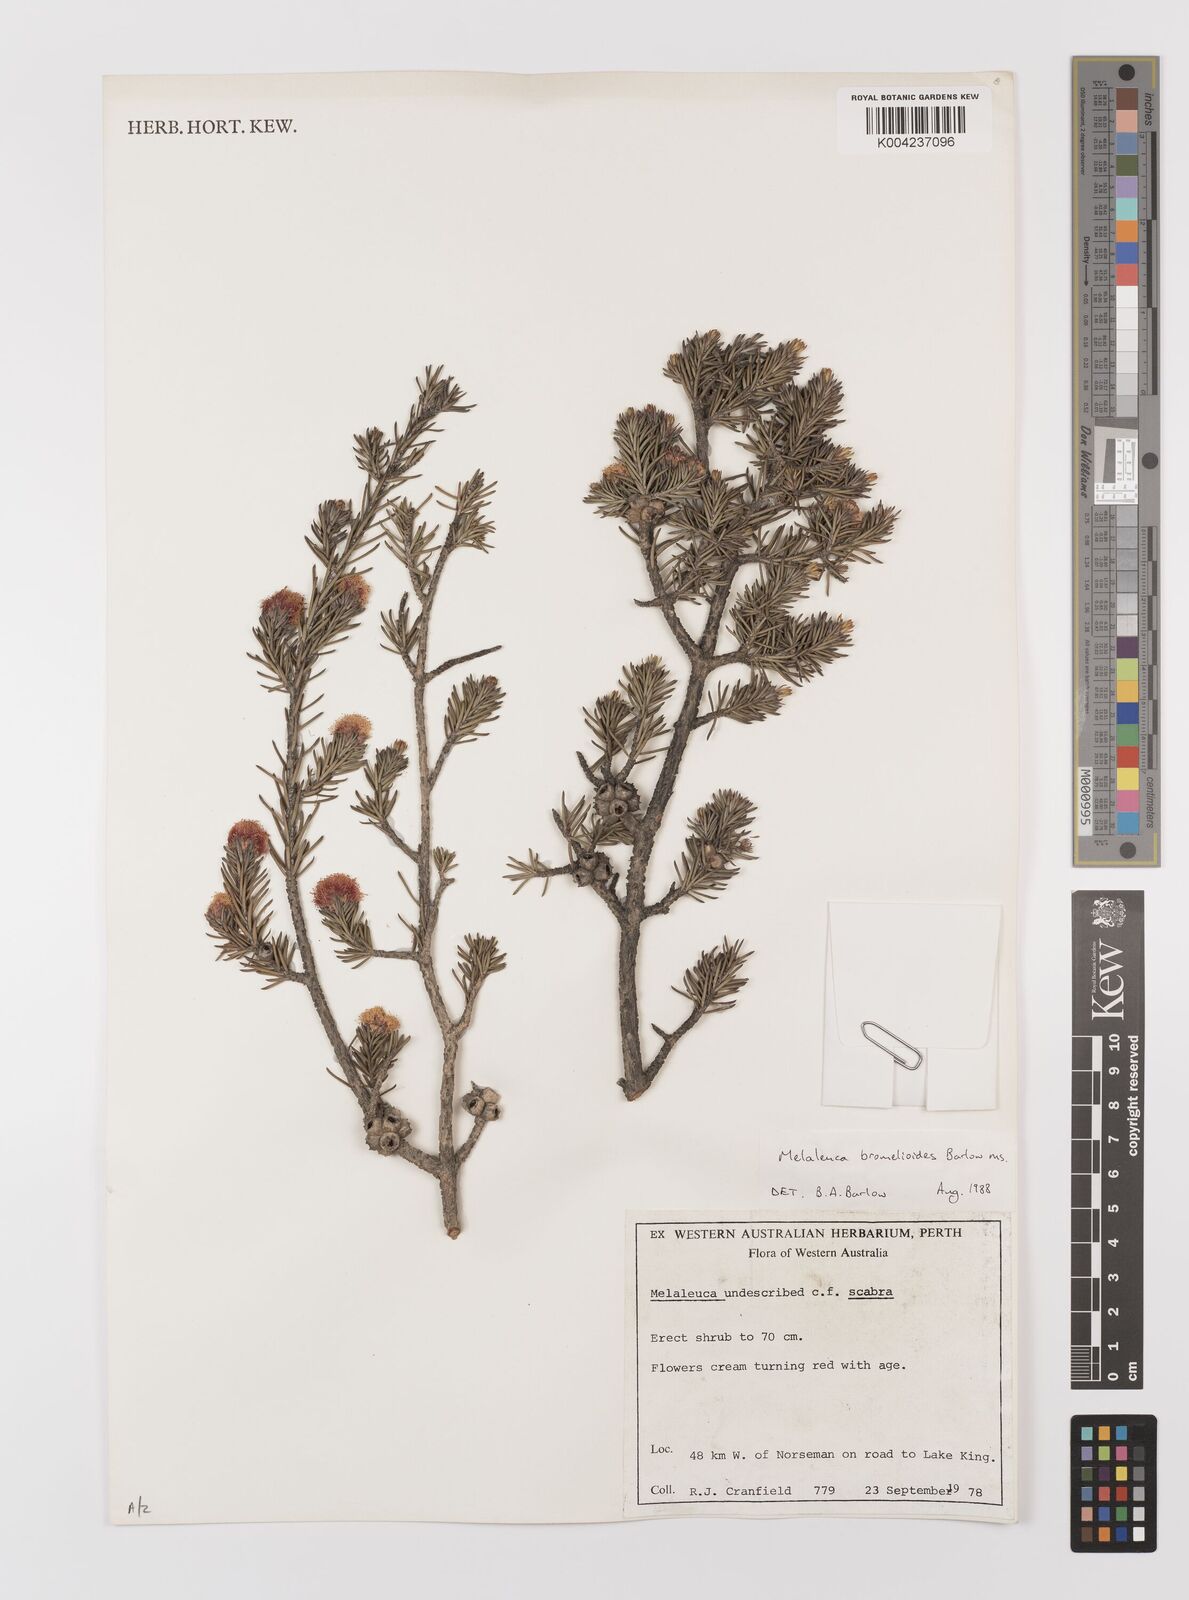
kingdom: Plantae
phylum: Tracheophyta
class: Magnoliopsida
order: Myrtales
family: Myrtaceae
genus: Melaleuca
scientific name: Melaleuca bromelioides
